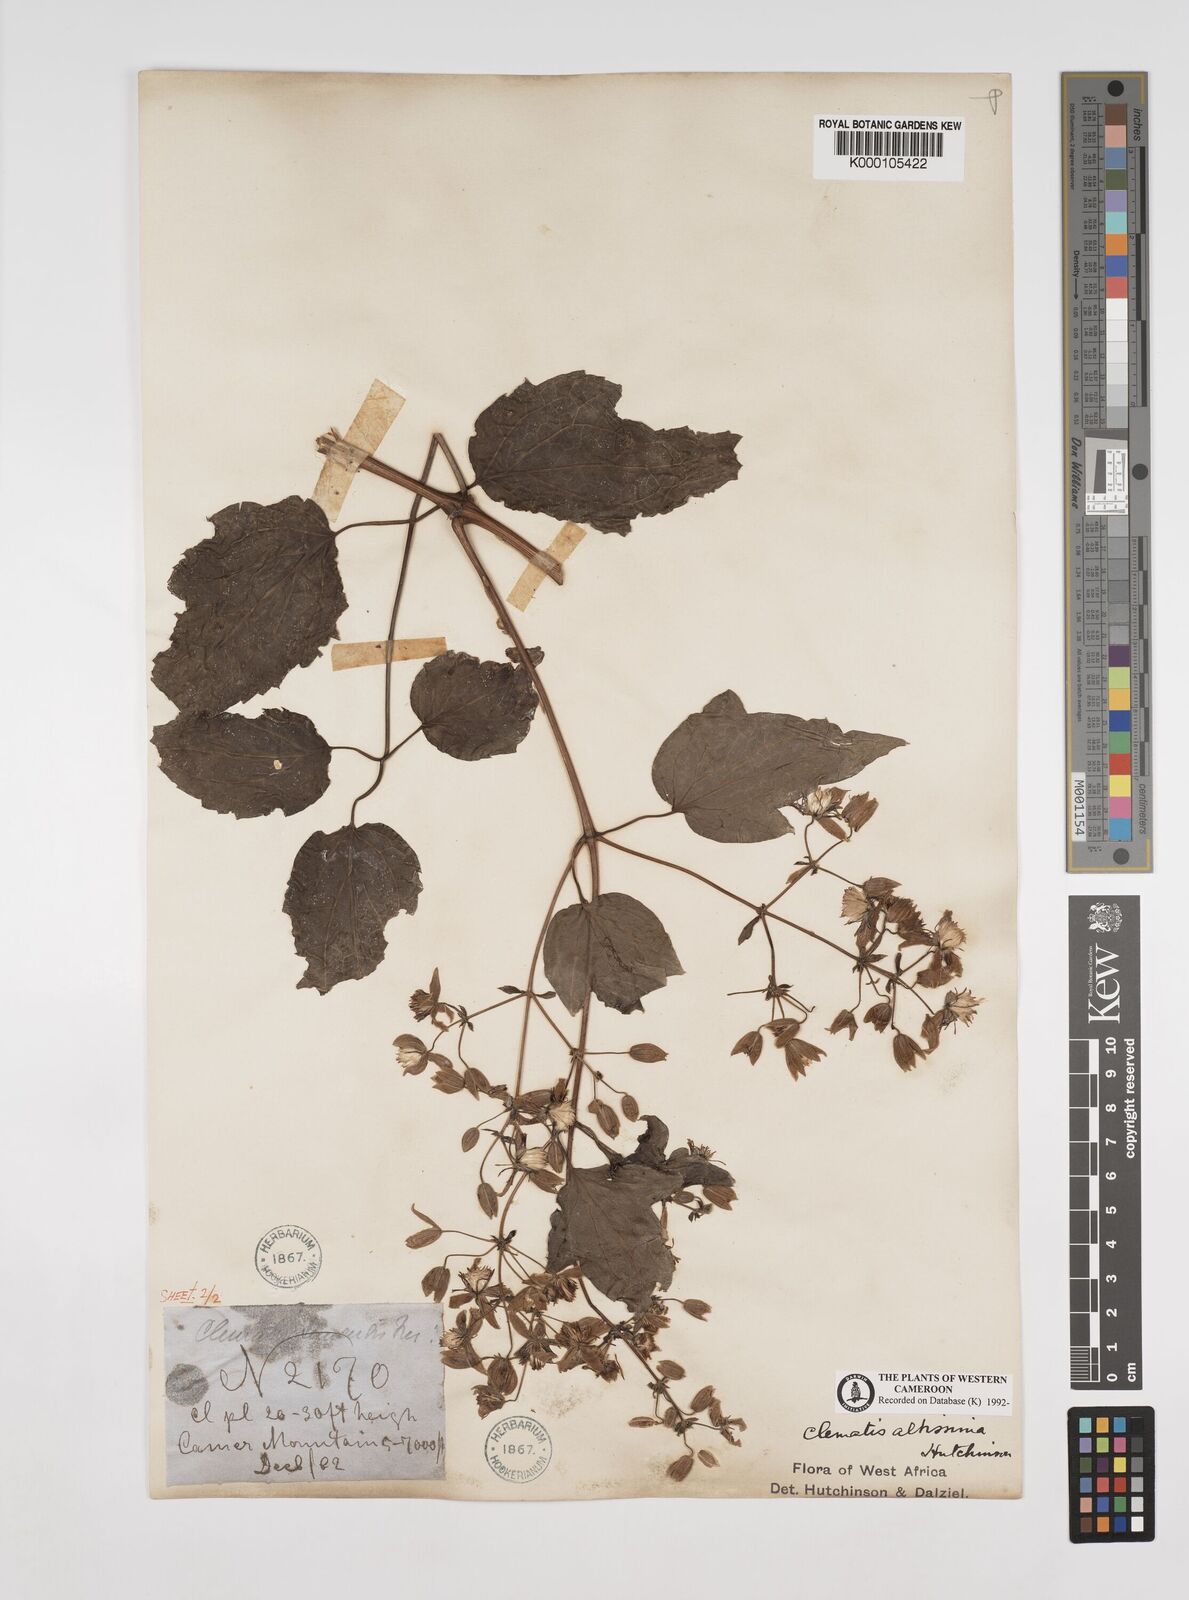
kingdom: Plantae
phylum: Tracheophyta
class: Magnoliopsida
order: Ranunculales
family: Ranunculaceae
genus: Clematis
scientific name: Clematis simensis
